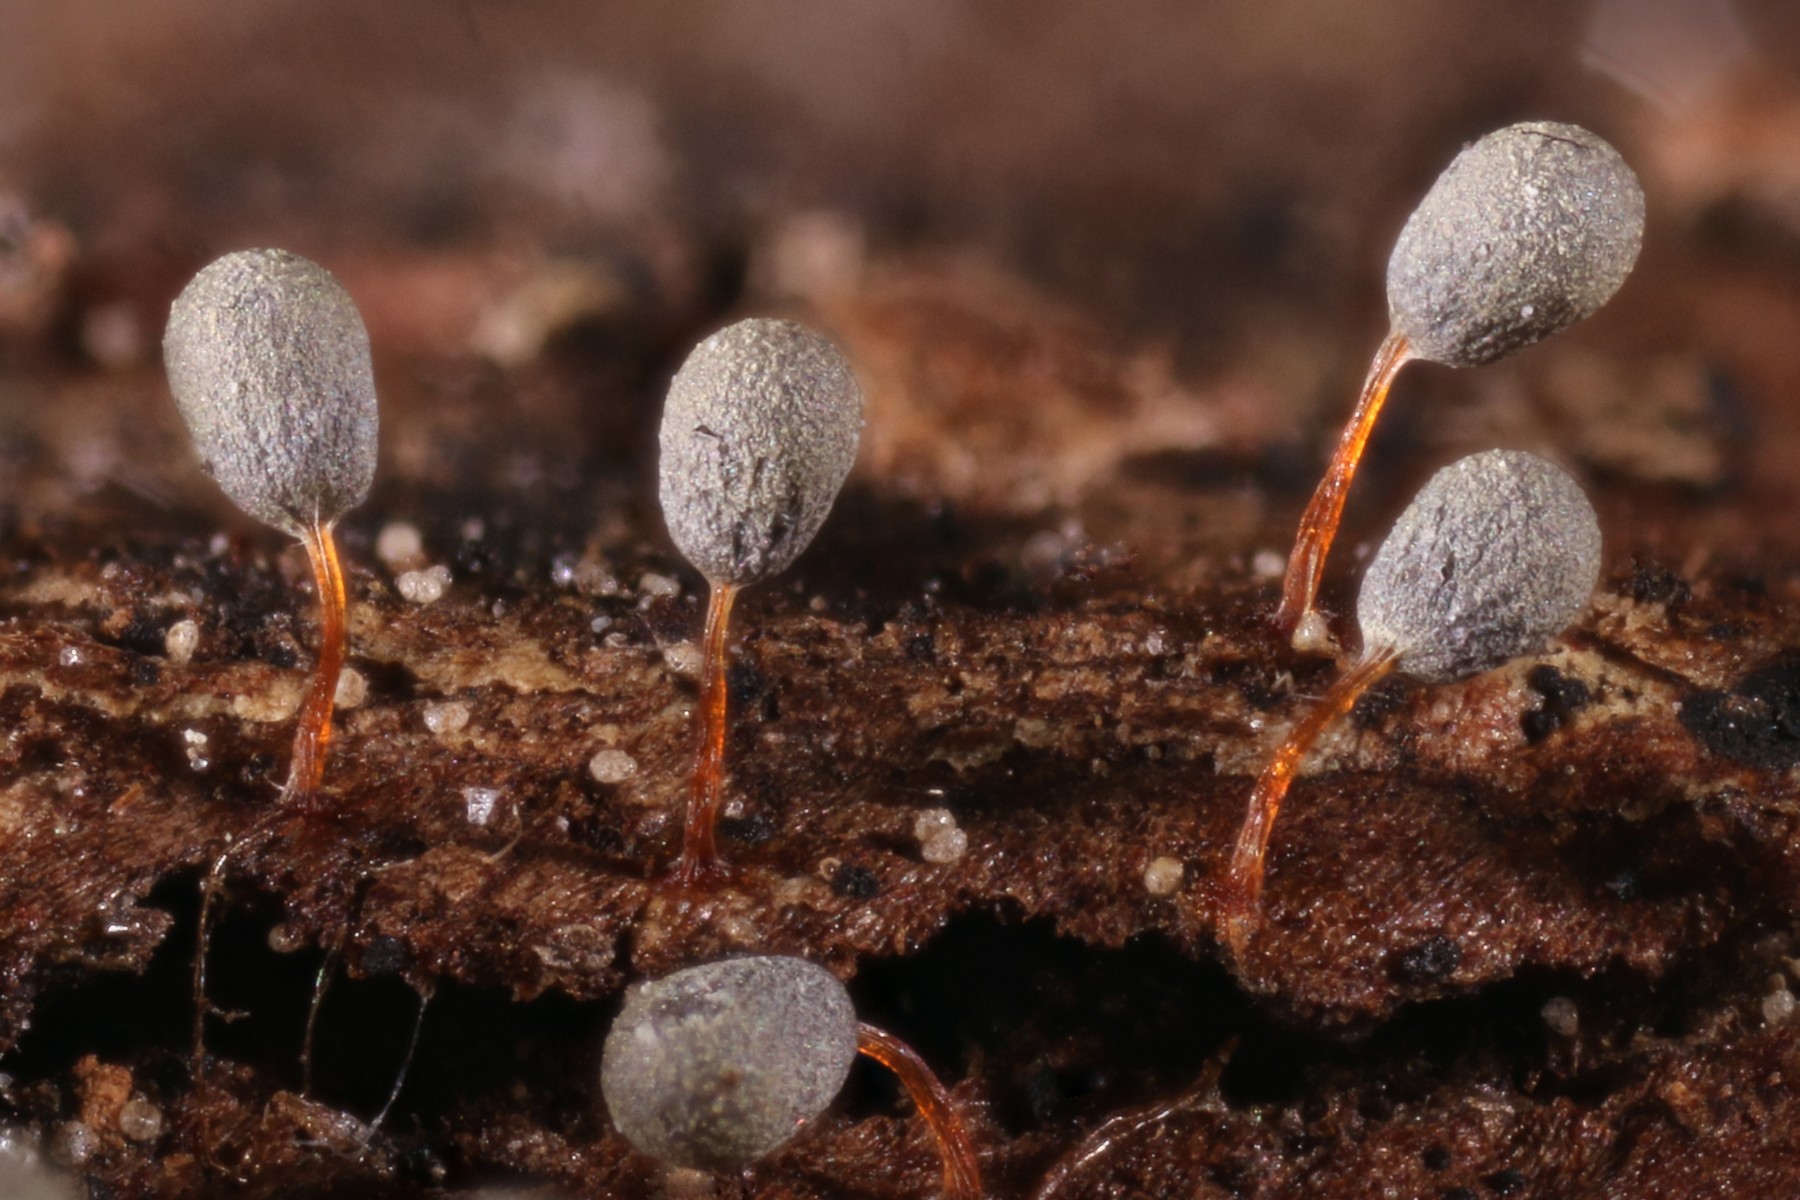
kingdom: Protozoa
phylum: Mycetozoa
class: Myxomycetes
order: Physarales
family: Physaraceae
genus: Physarum
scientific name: Physarum penetrale
